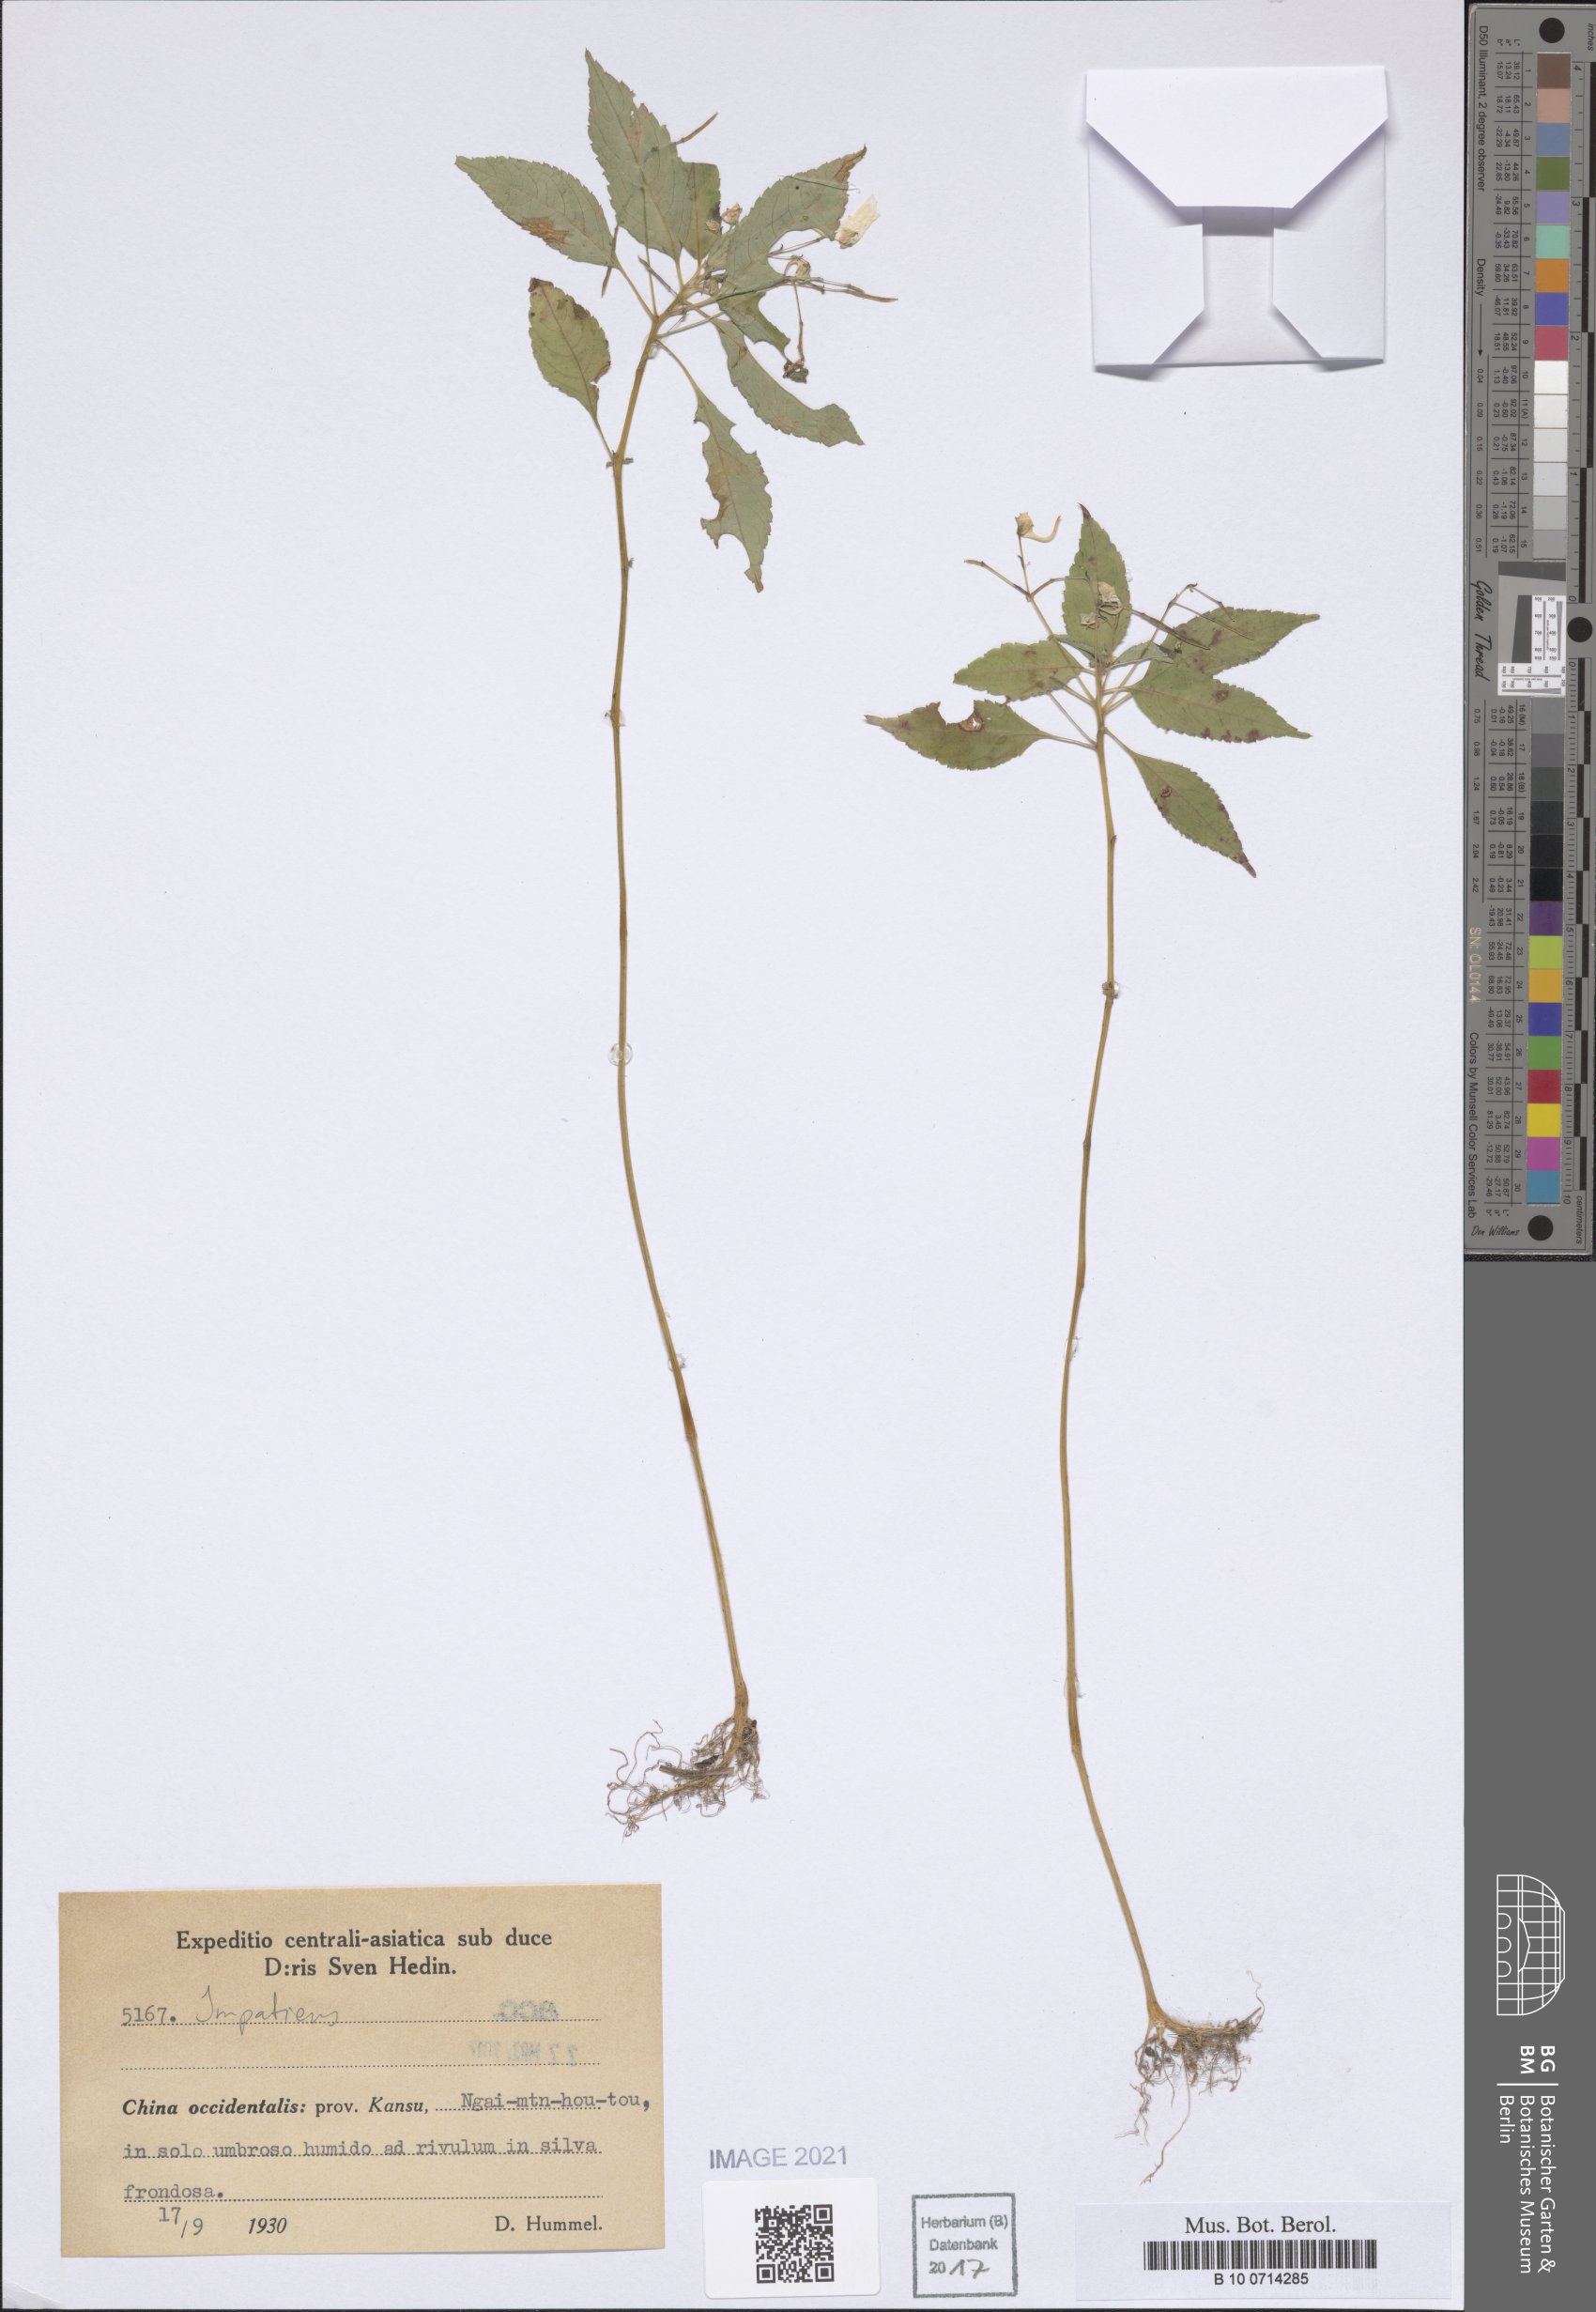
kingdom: Plantae
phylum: Tracheophyta
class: Magnoliopsida
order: Ericales
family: Balsaminaceae
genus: Impatiens
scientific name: Impatiens
